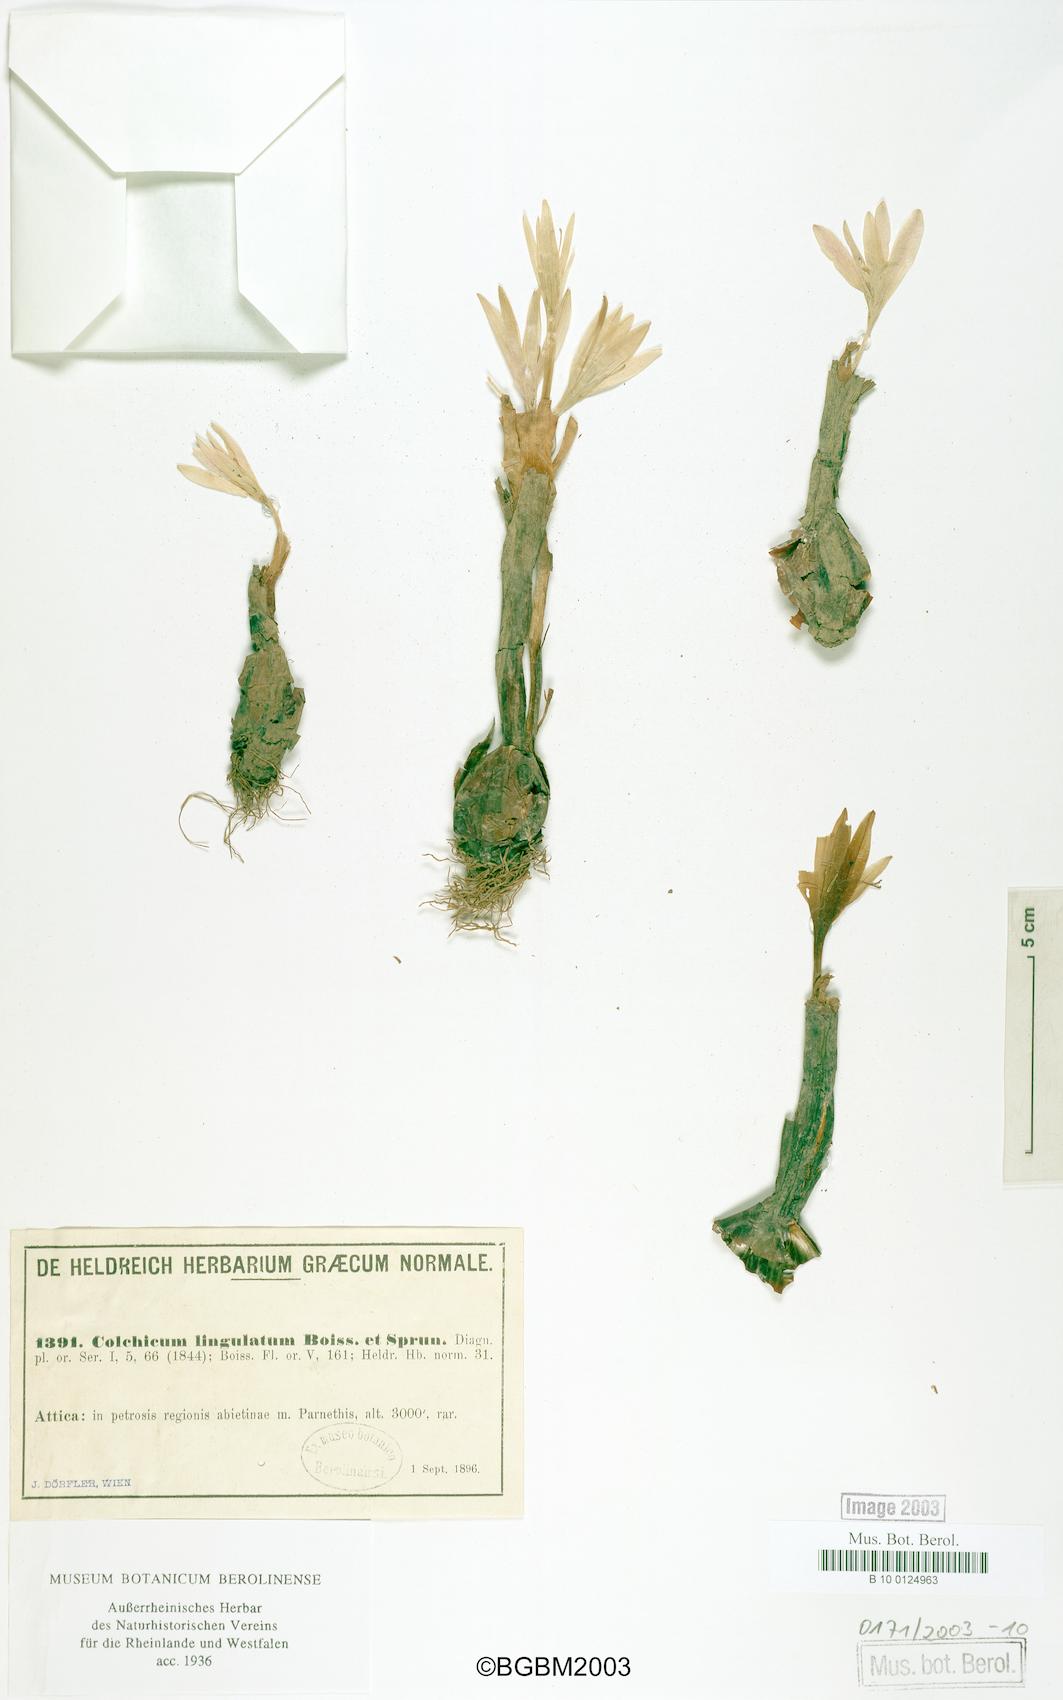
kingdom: Plantae
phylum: Tracheophyta
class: Liliopsida
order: Liliales
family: Colchicaceae
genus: Colchicum
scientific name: Colchicum lingulatum
